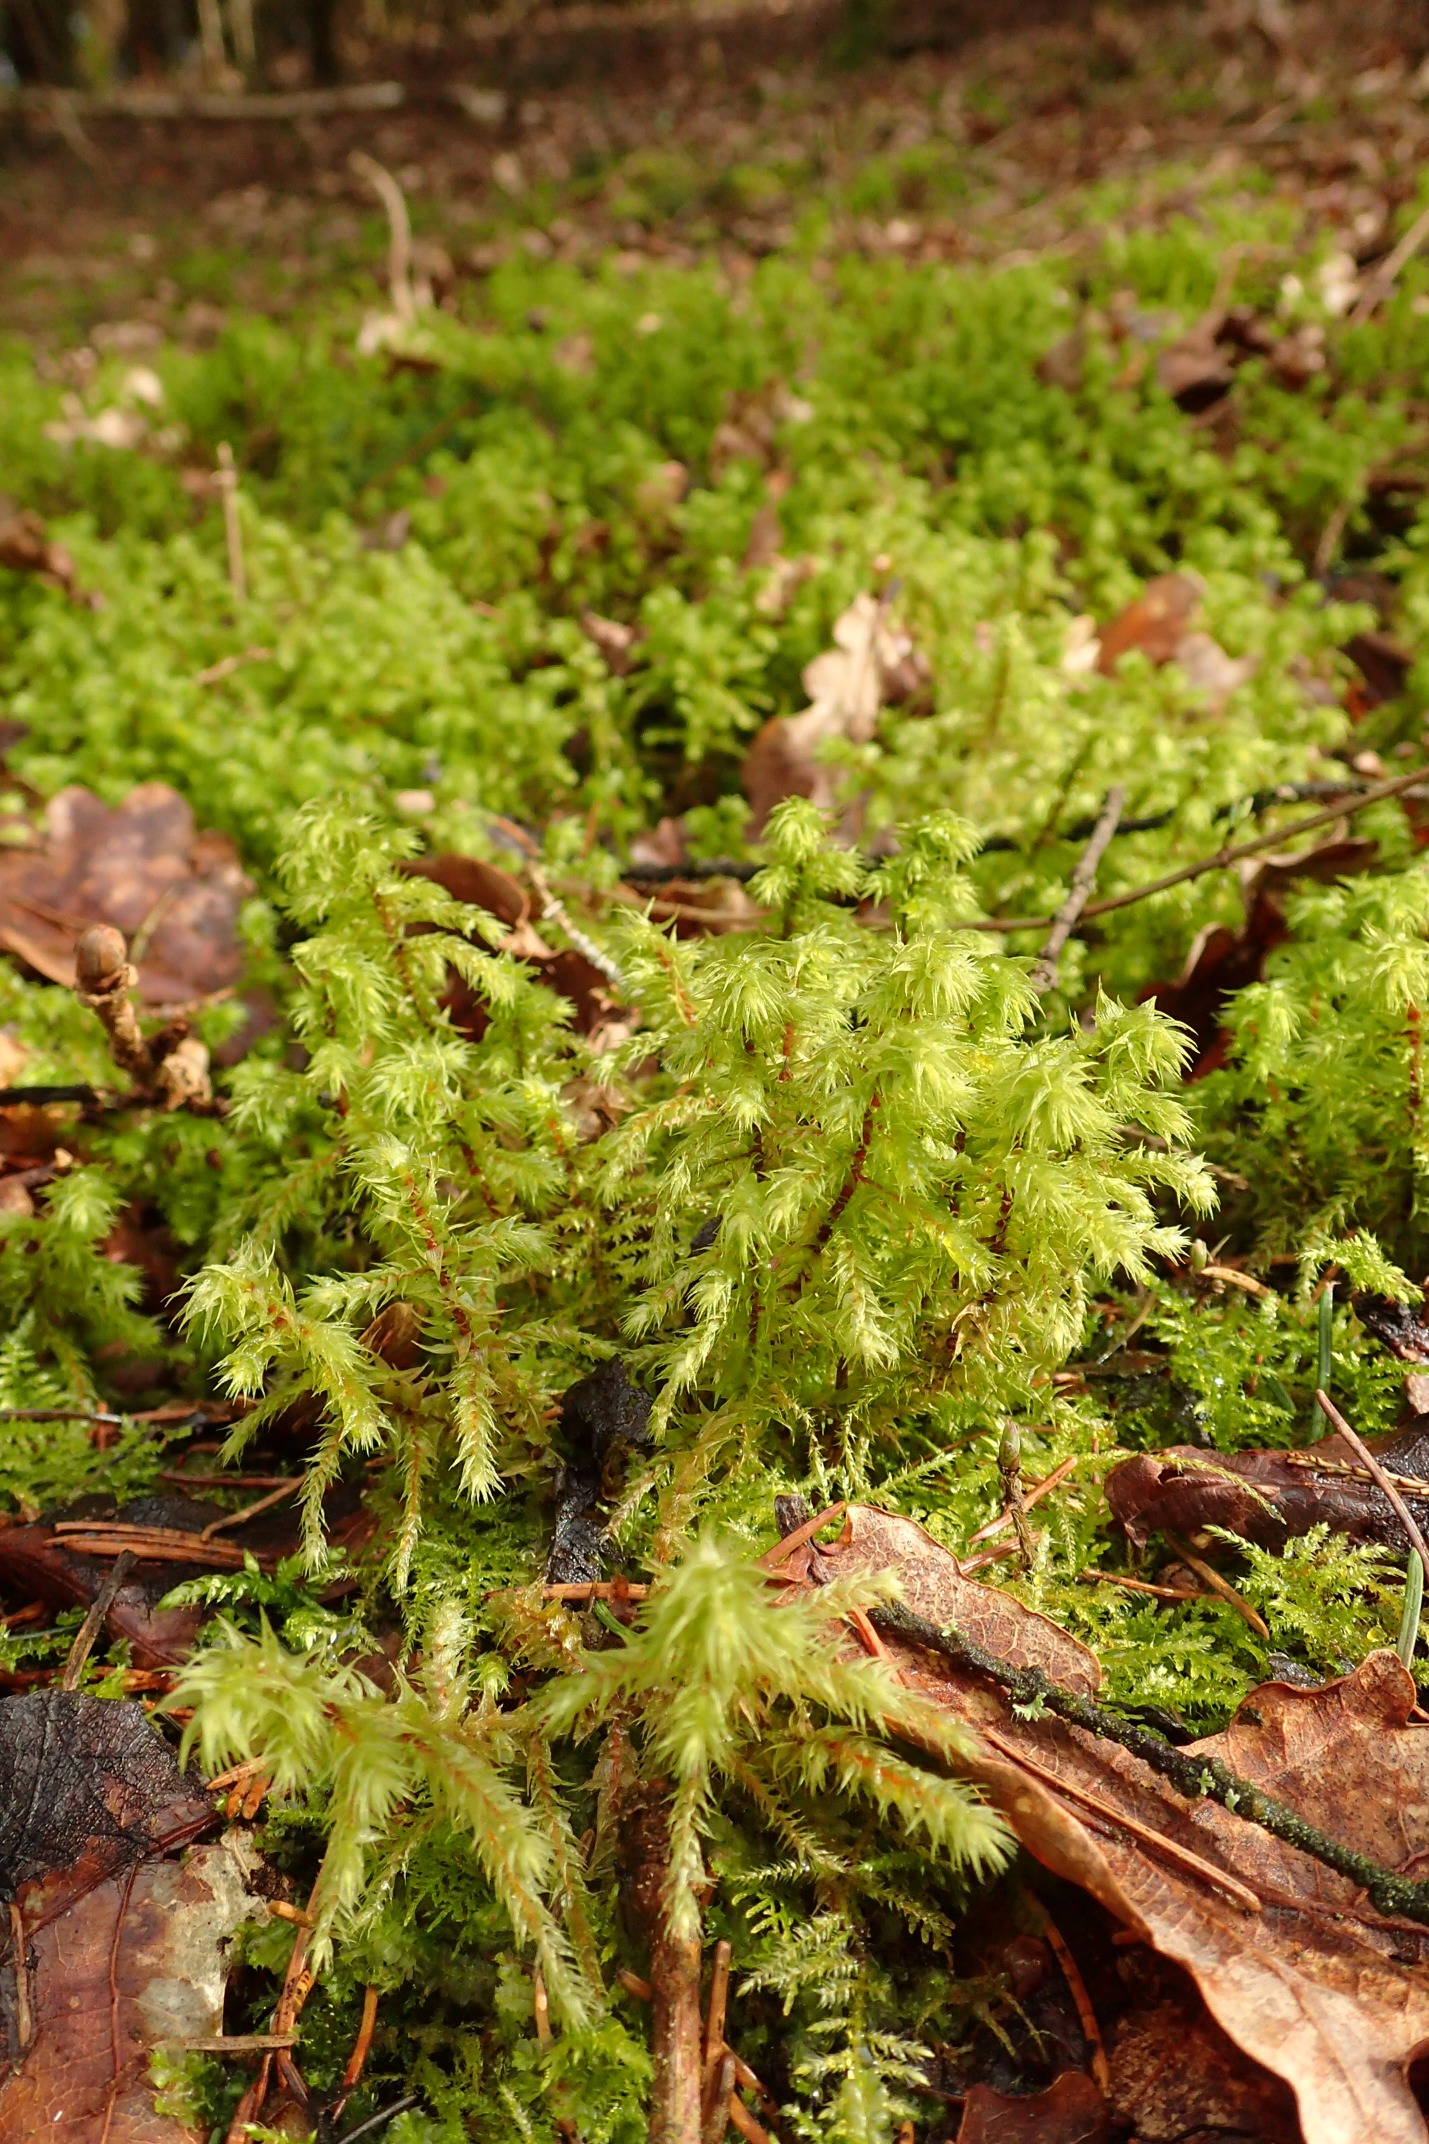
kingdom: Plantae
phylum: Bryophyta
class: Bryopsida
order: Hypnales
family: Hylocomiaceae
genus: Hylocomiadelphus
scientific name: Hylocomiadelphus triquetrus
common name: Stor kransemos
